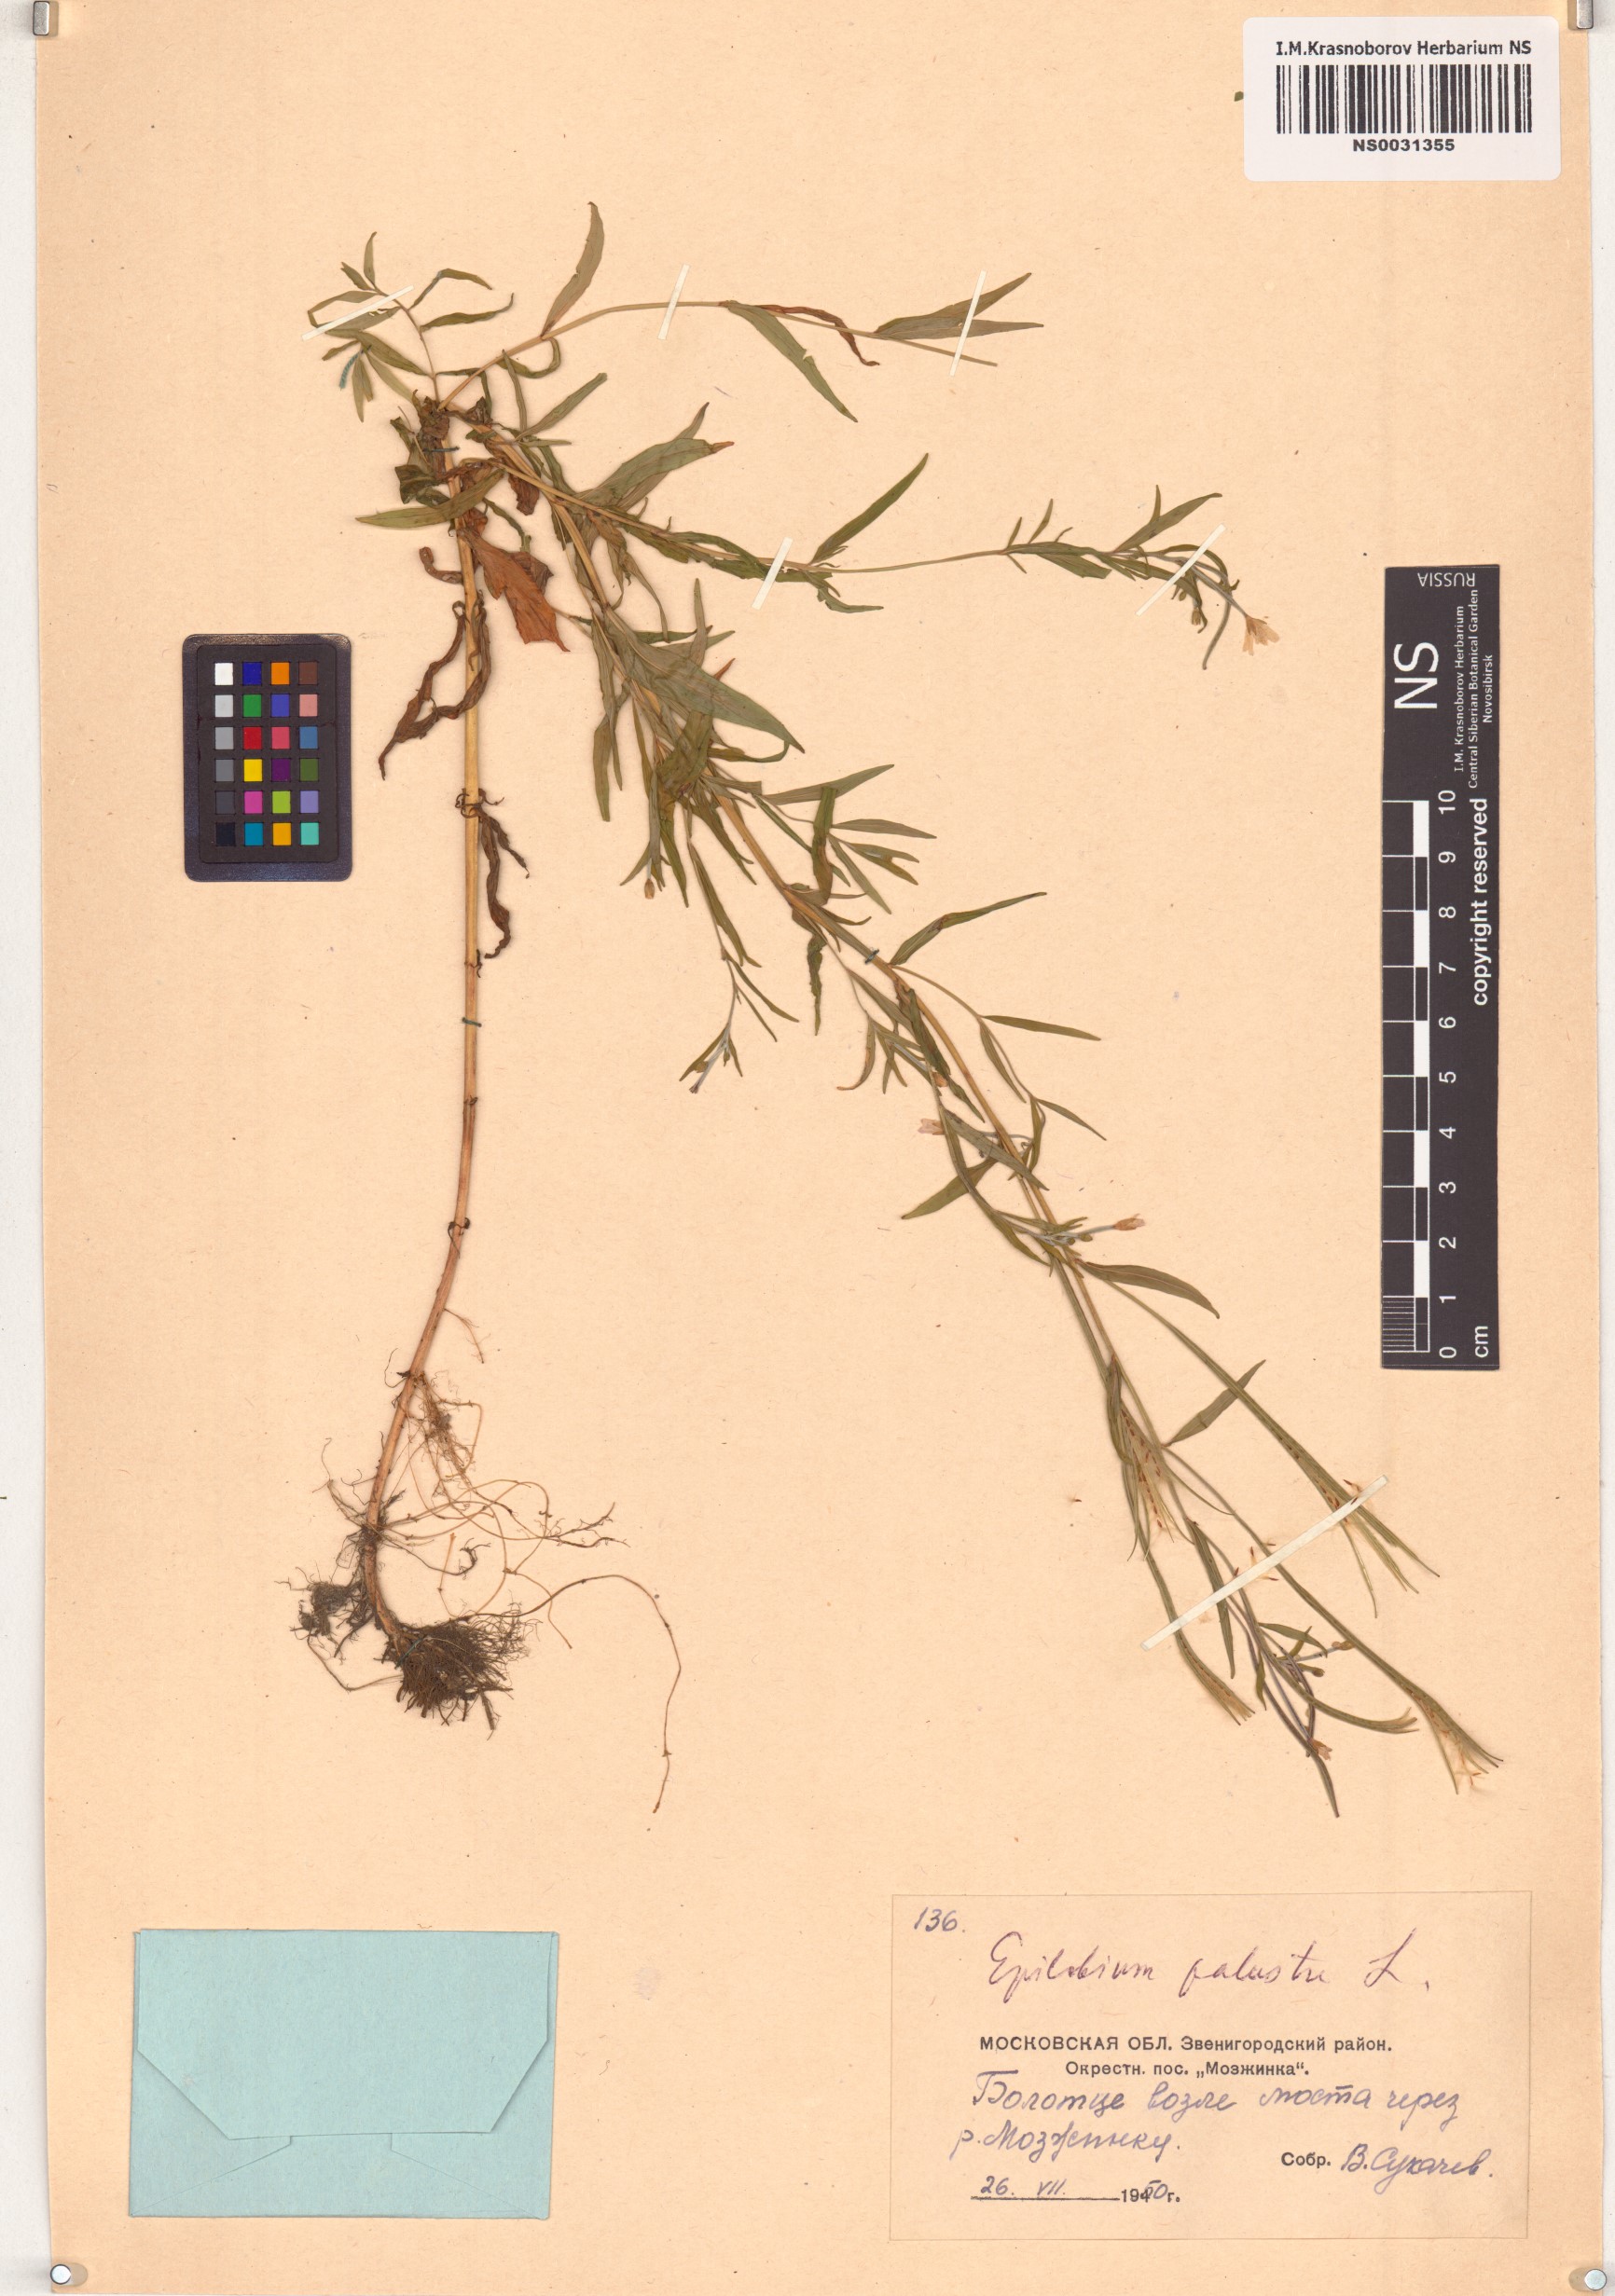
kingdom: Plantae
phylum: Tracheophyta
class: Magnoliopsida
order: Myrtales
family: Onagraceae
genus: Epilobium
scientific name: Epilobium palustre
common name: Marsh willowherb
